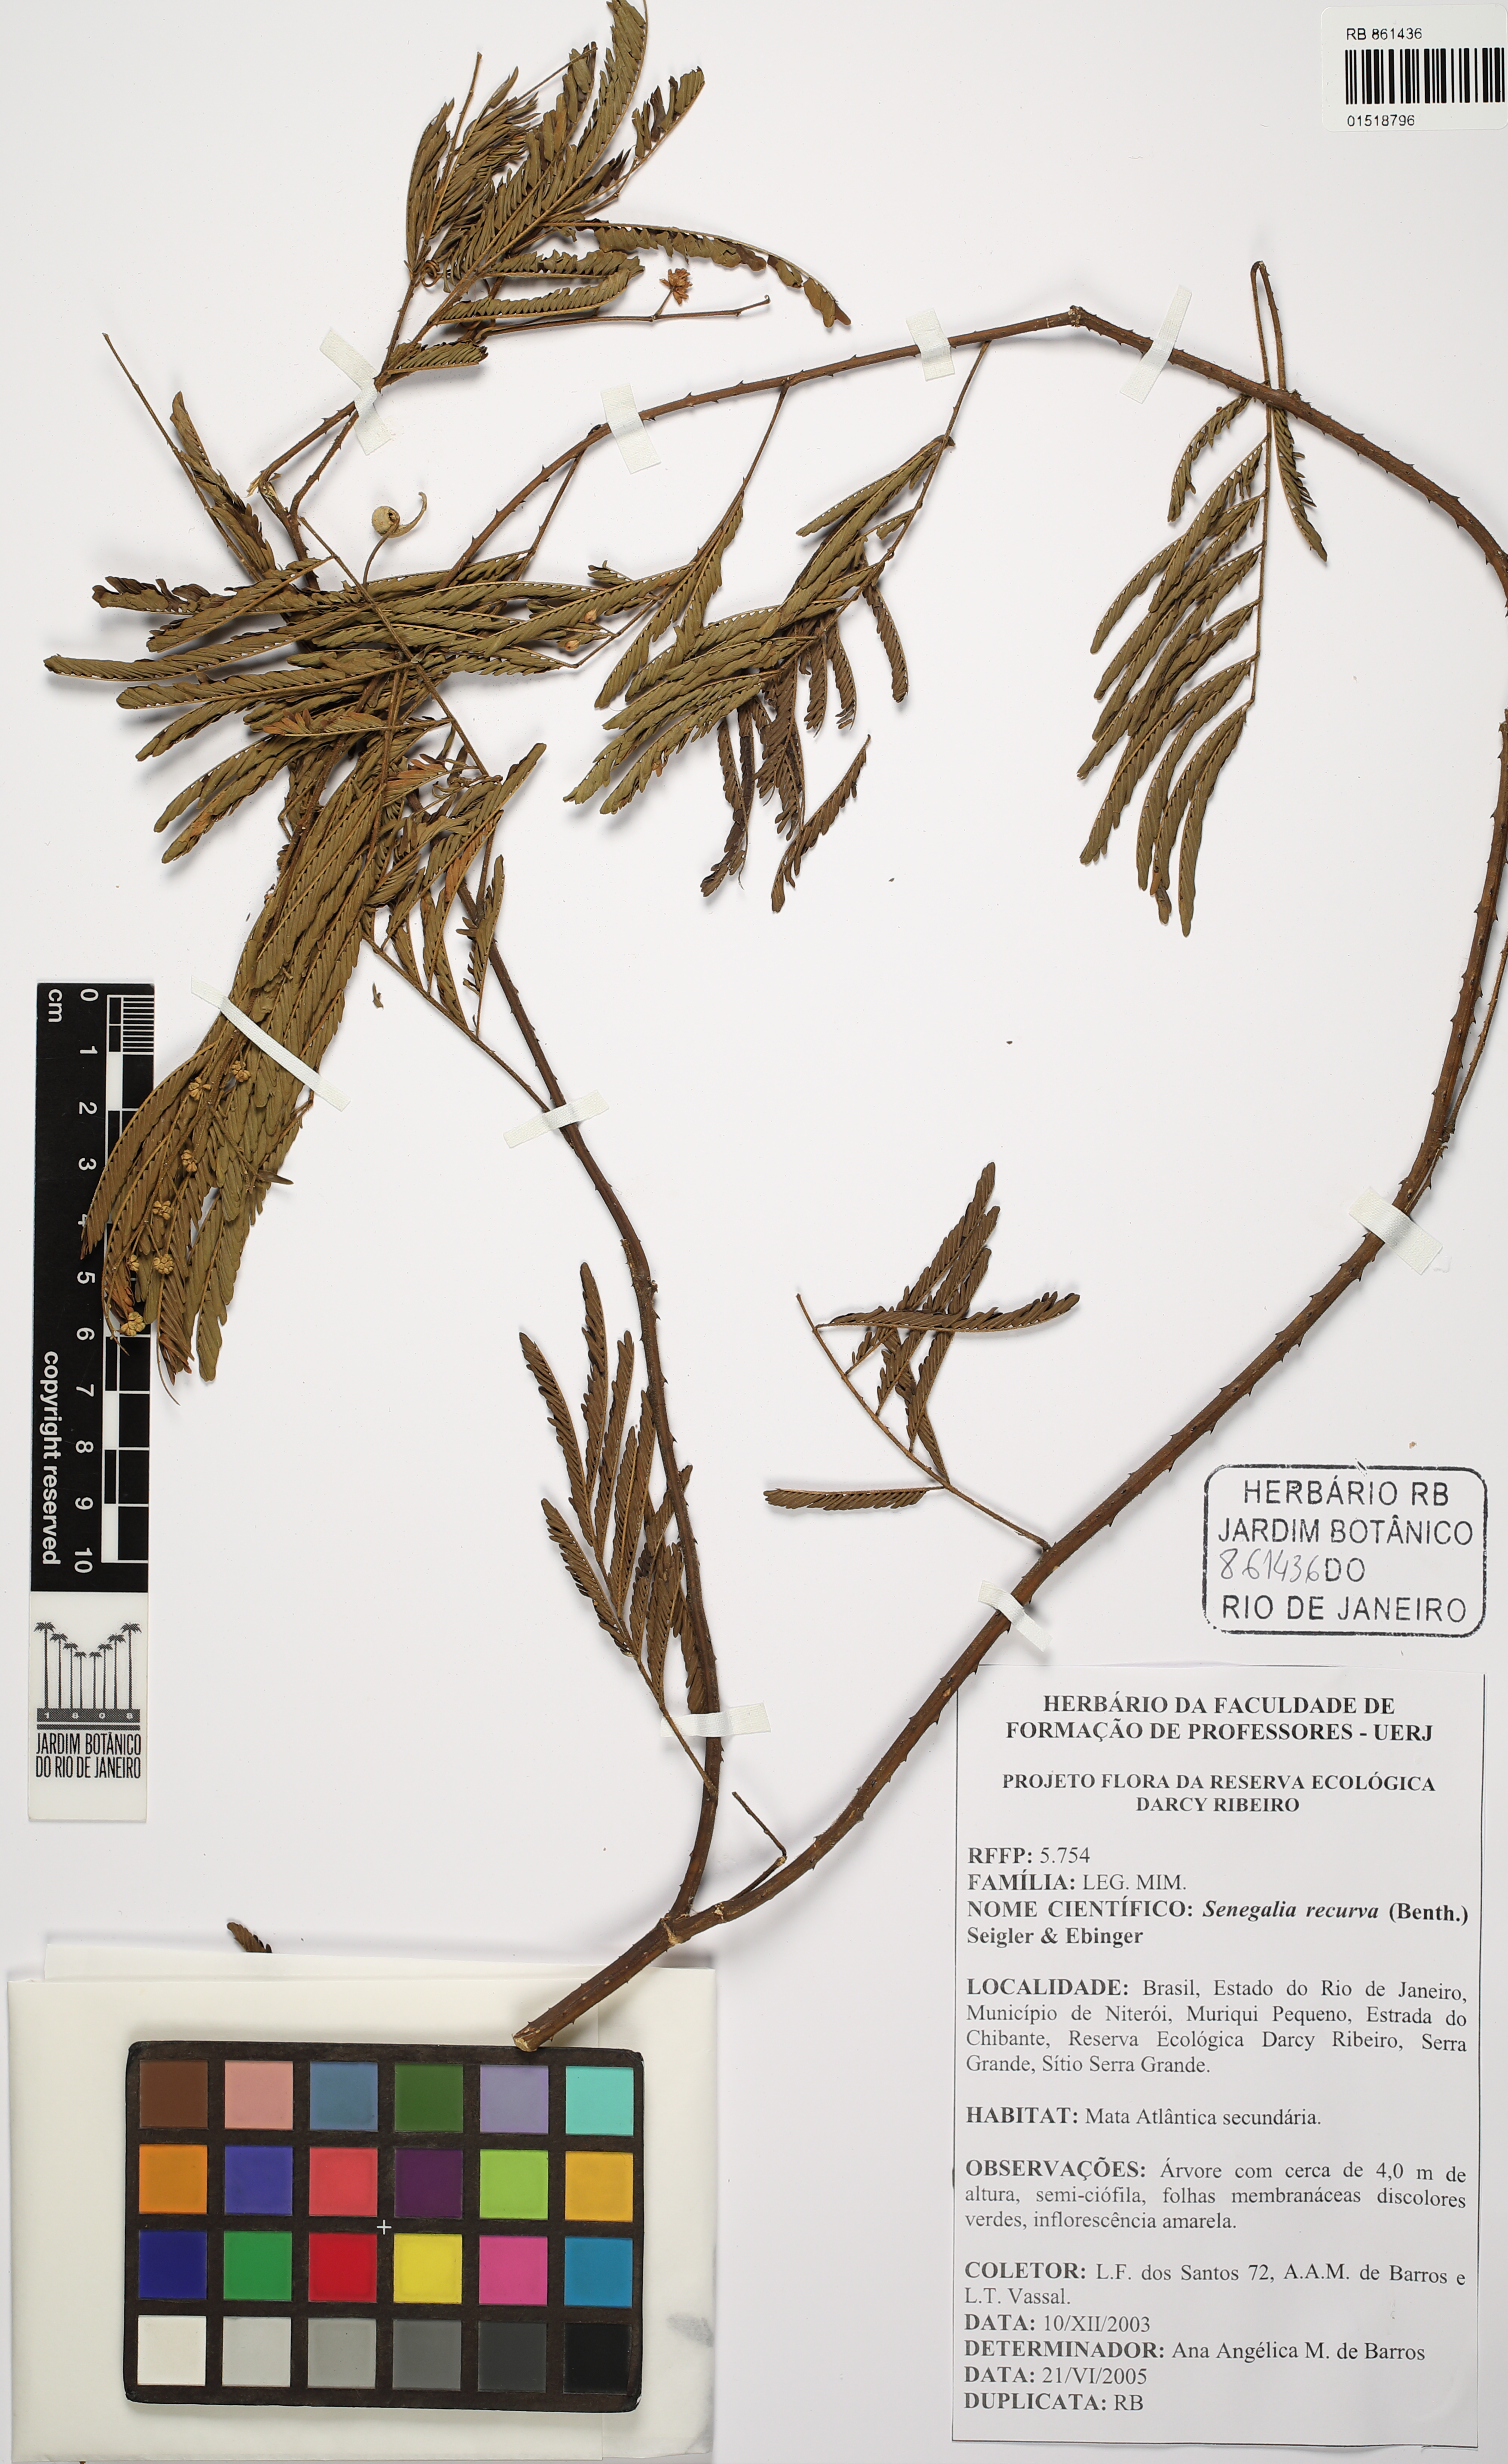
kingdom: Plantae
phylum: Tracheophyta
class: Magnoliopsida
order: Fabales
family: Fabaceae
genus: Senegalia
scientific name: Senegalia recurva
